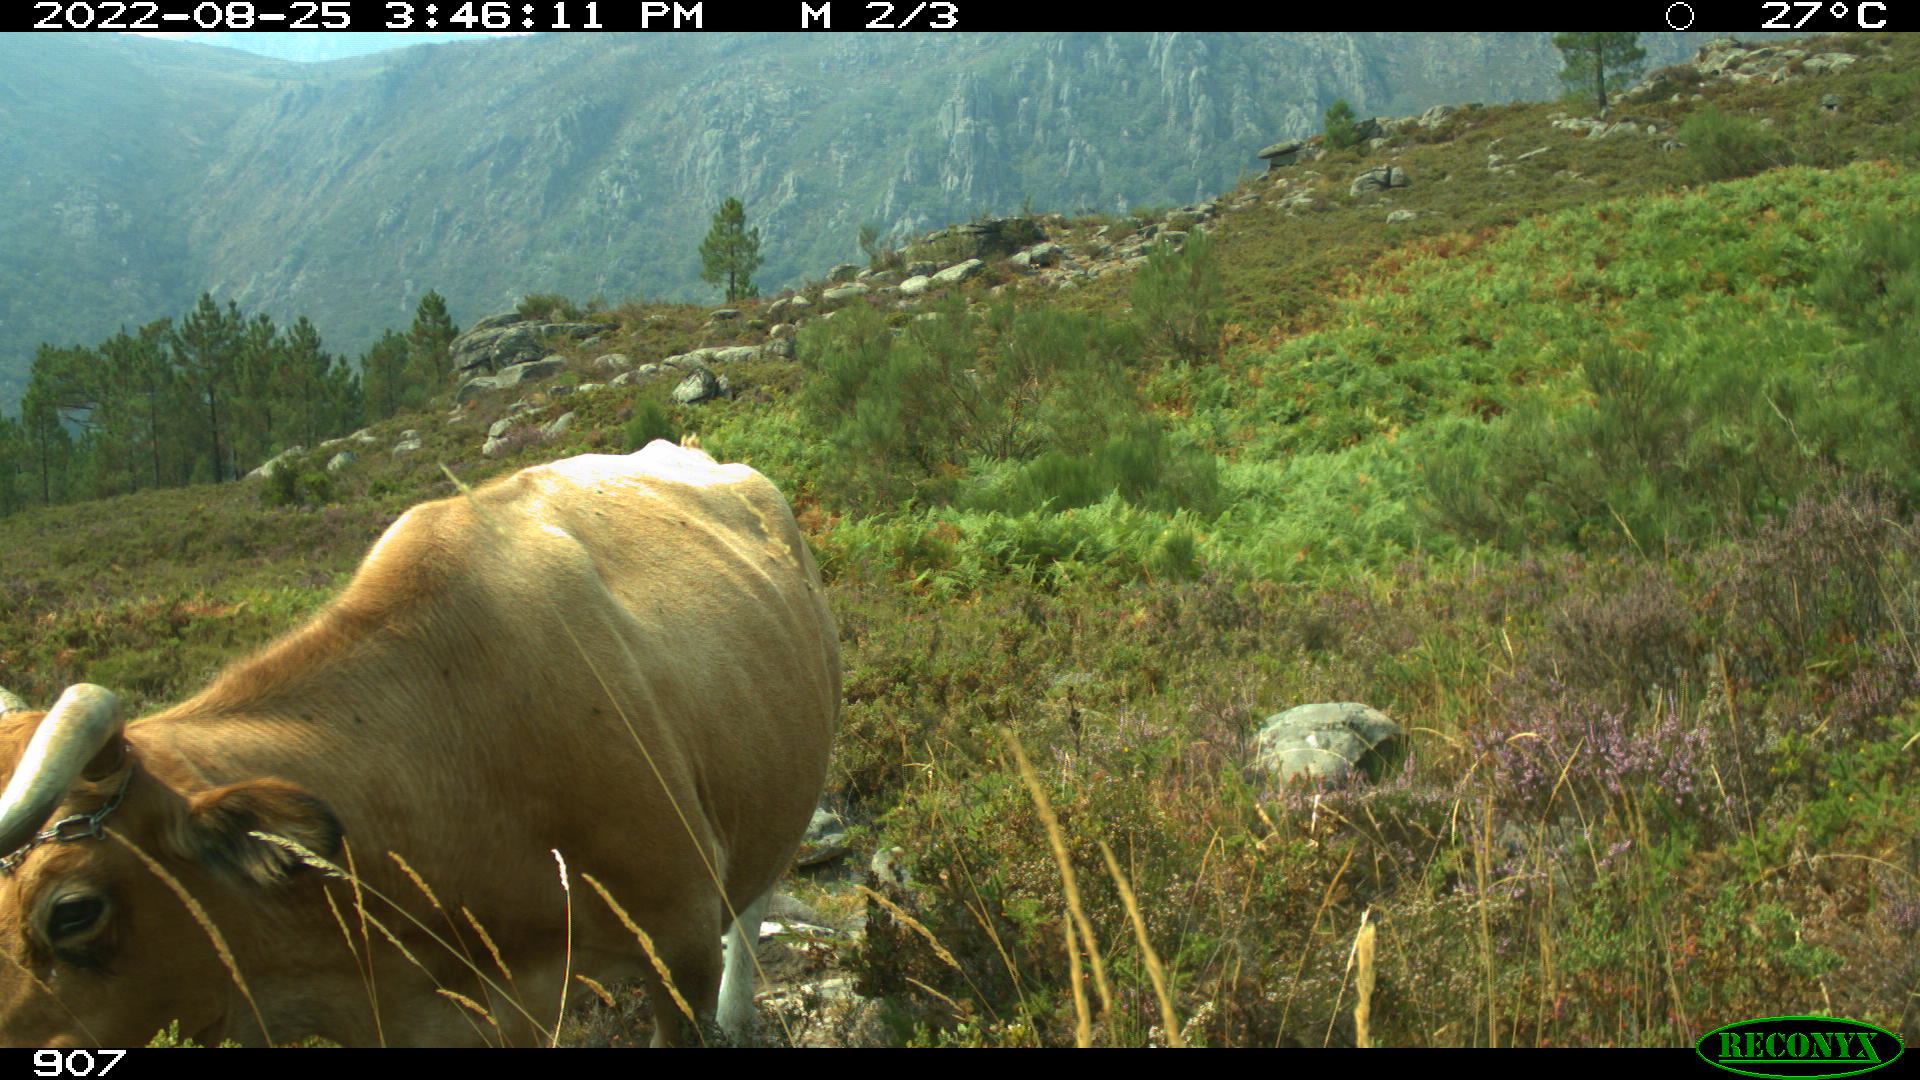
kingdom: Animalia
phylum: Chordata
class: Mammalia
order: Artiodactyla
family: Bovidae
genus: Bos
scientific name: Bos taurus
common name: Domesticated cattle
